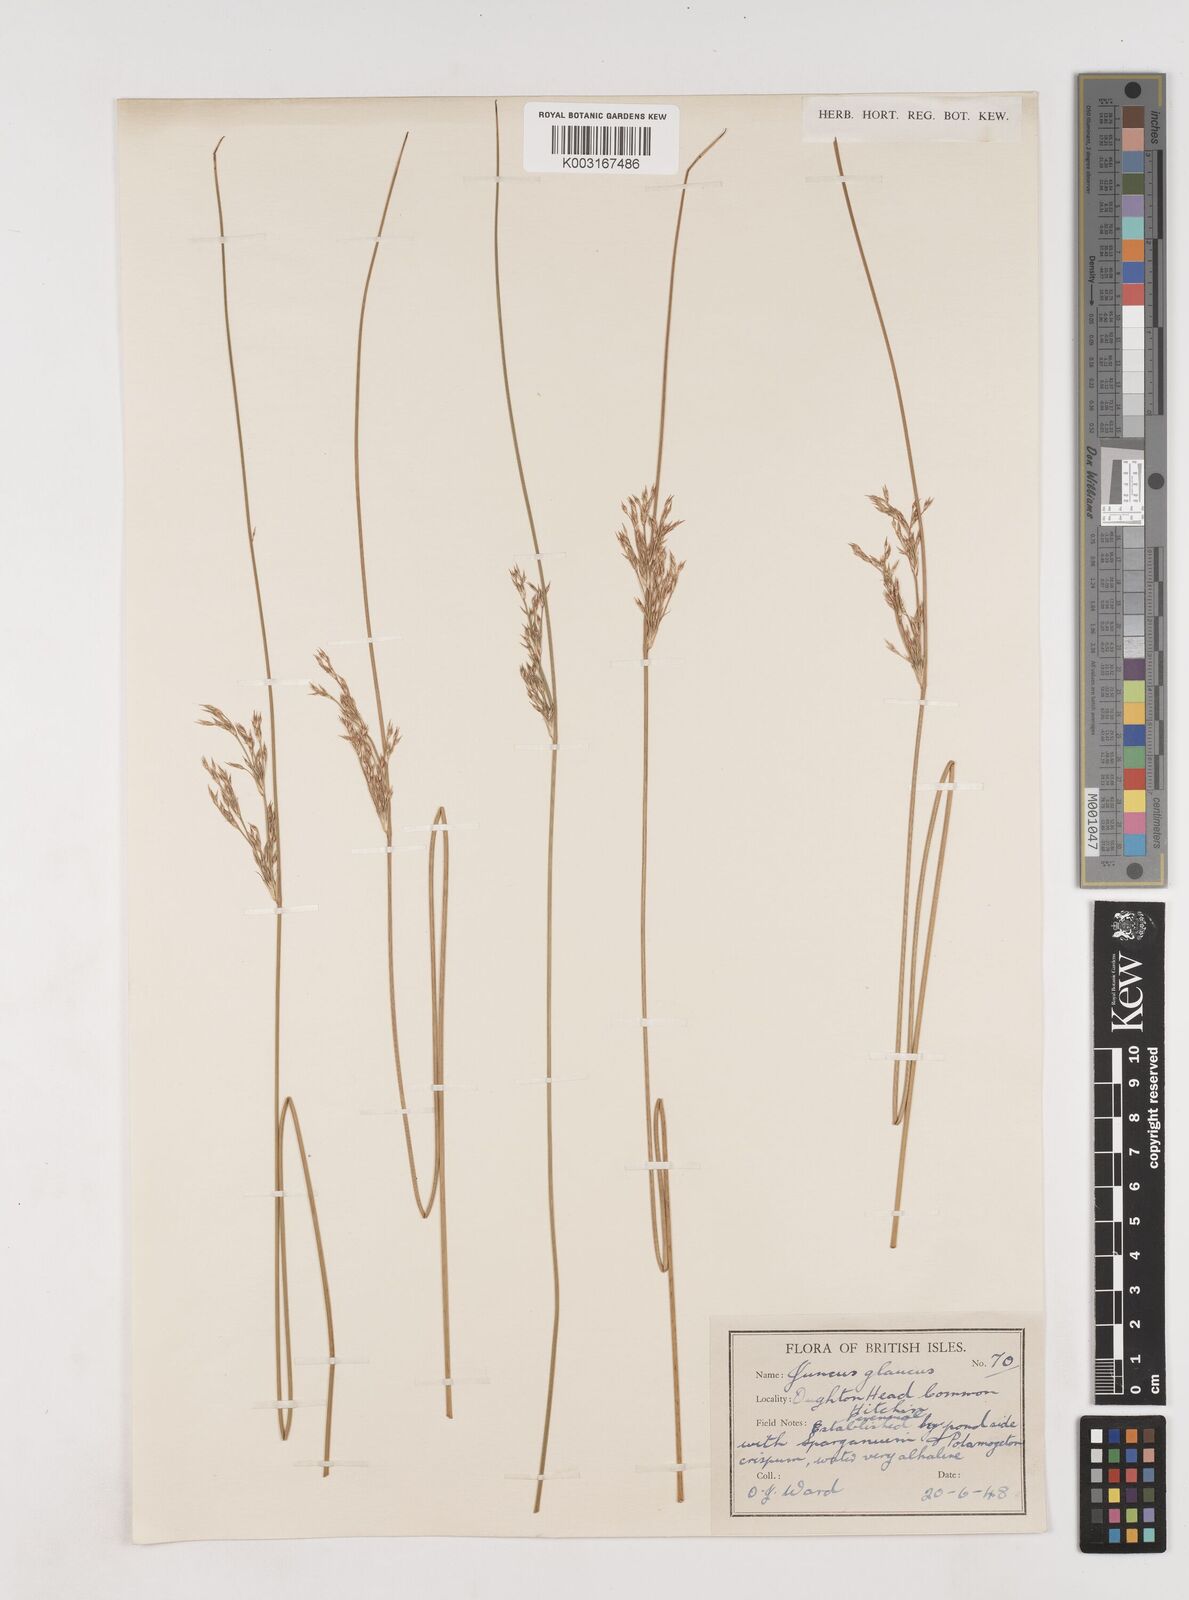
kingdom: Plantae
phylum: Tracheophyta
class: Liliopsida
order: Poales
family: Juncaceae
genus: Juncus
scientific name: Juncus inflexus
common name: Hard rush
